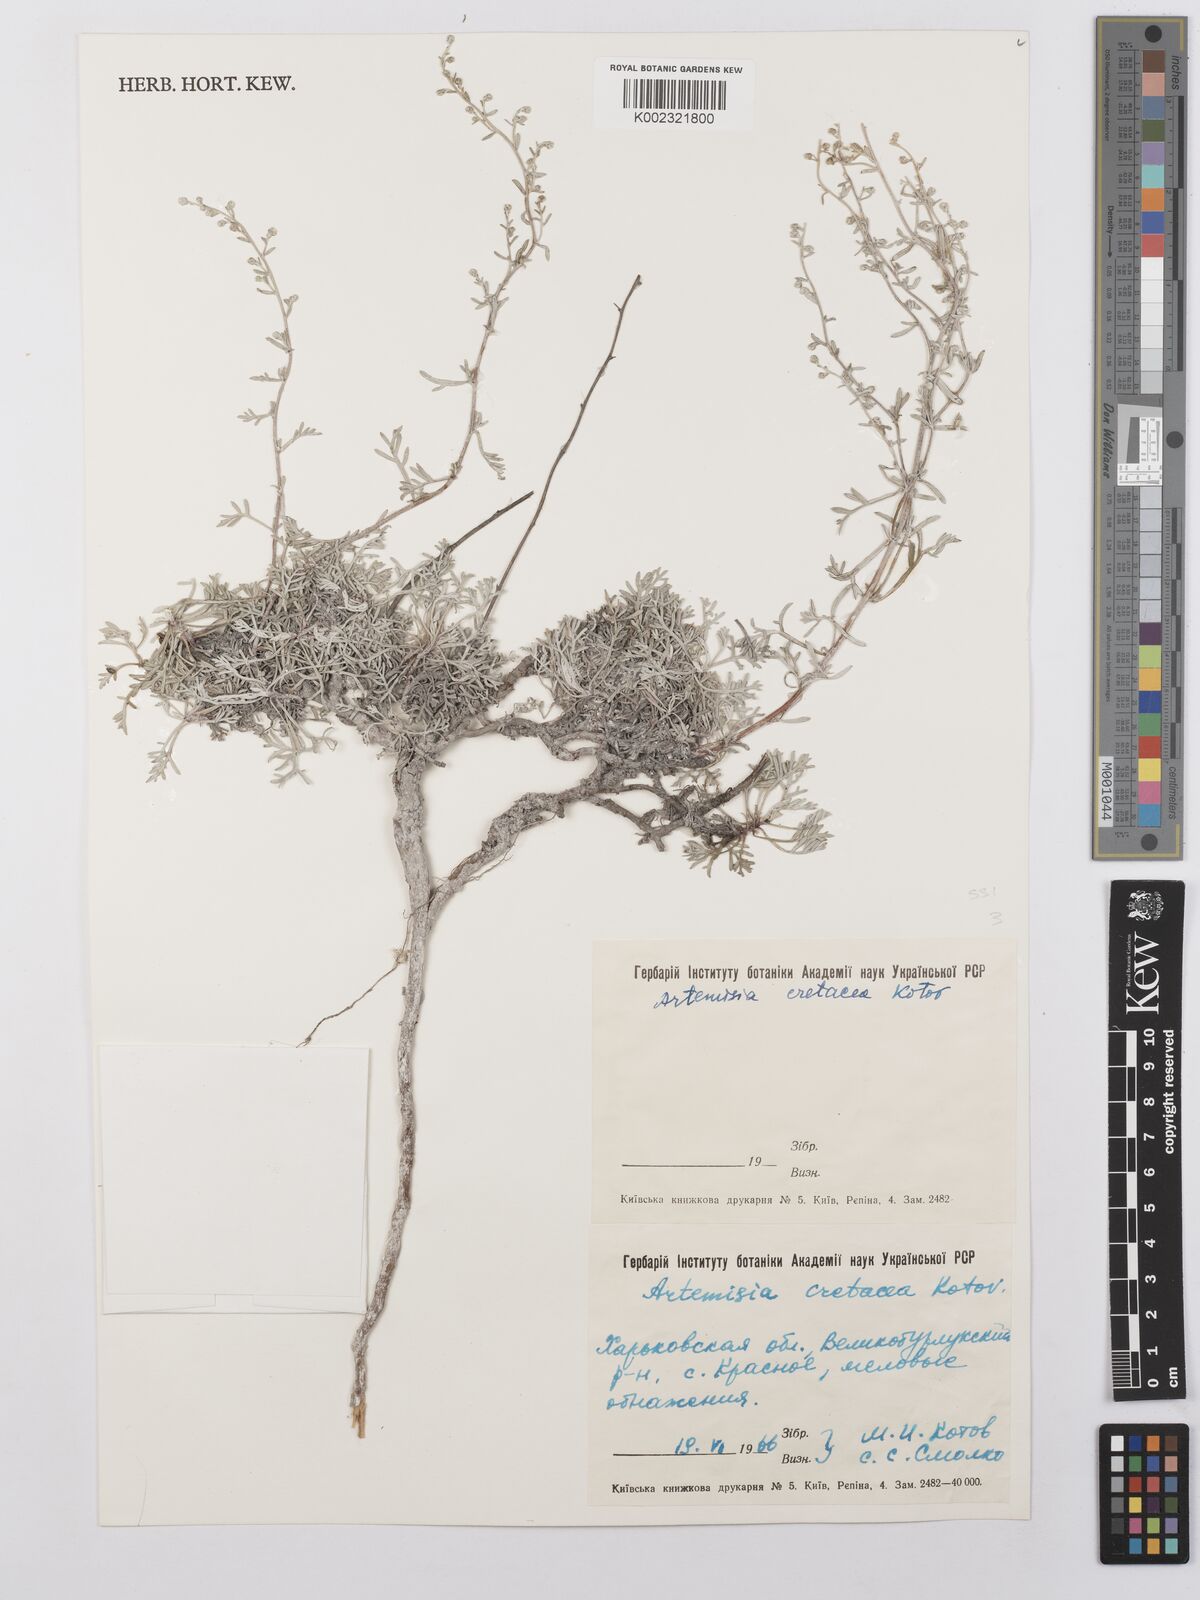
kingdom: Plantae
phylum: Tracheophyta
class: Magnoliopsida
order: Asterales
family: Asteraceae
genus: Artemisia
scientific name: Artemisia nutans
